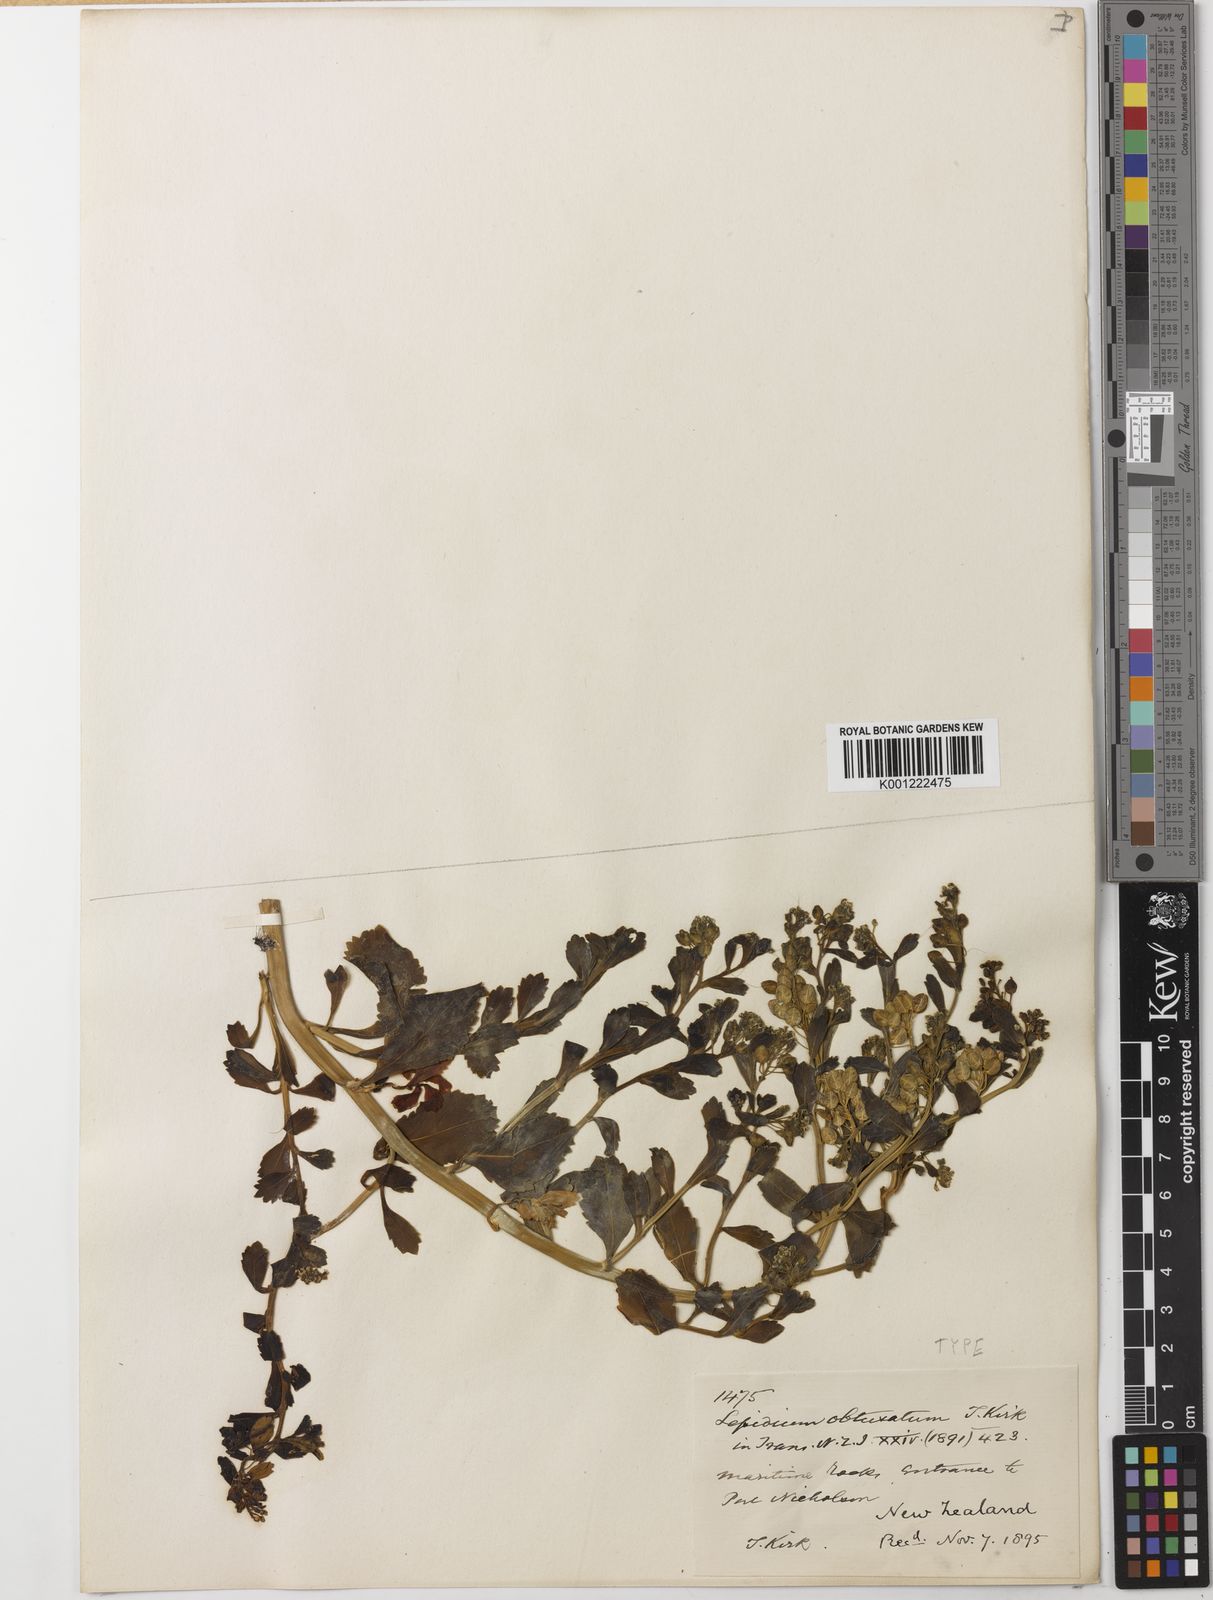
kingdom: Plantae
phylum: Tracheophyta
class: Magnoliopsida
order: Brassicales
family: Brassicaceae
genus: Lepidium
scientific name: Lepidium obtusatum
